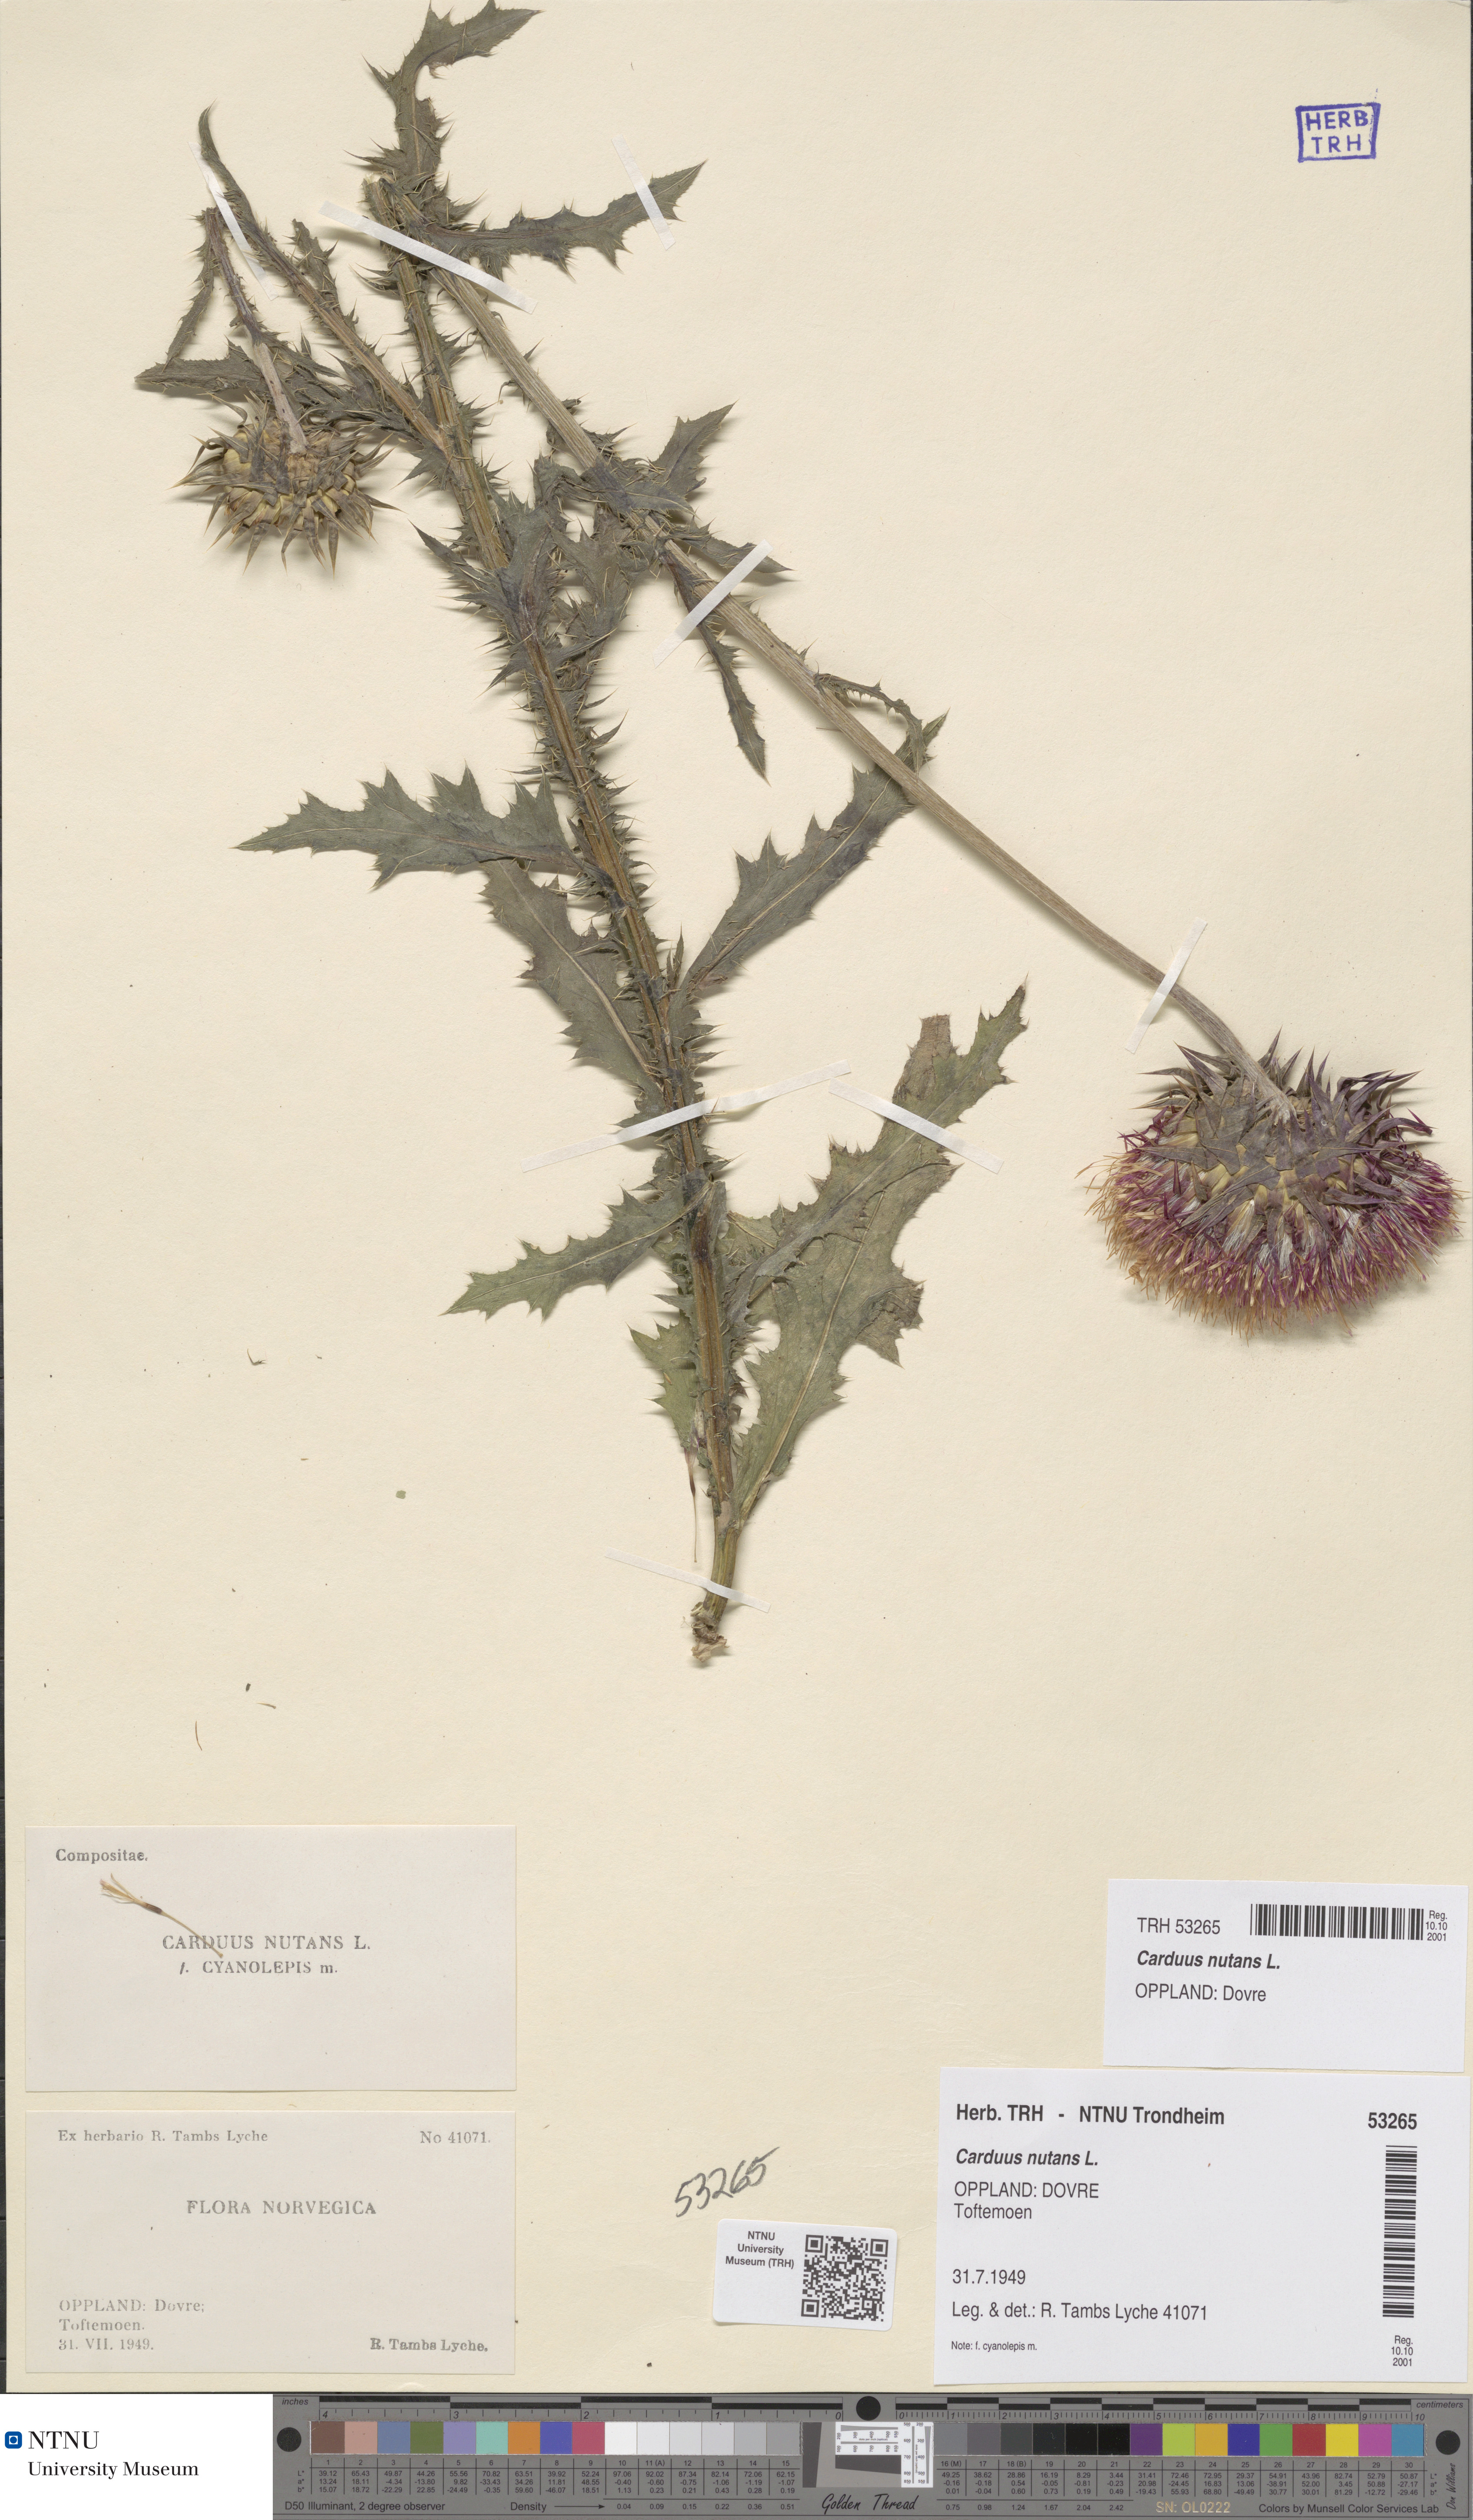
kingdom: Plantae
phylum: Tracheophyta
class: Magnoliopsida
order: Asterales
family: Asteraceae
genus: Carduus
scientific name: Carduus nutans
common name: Musk thistle
